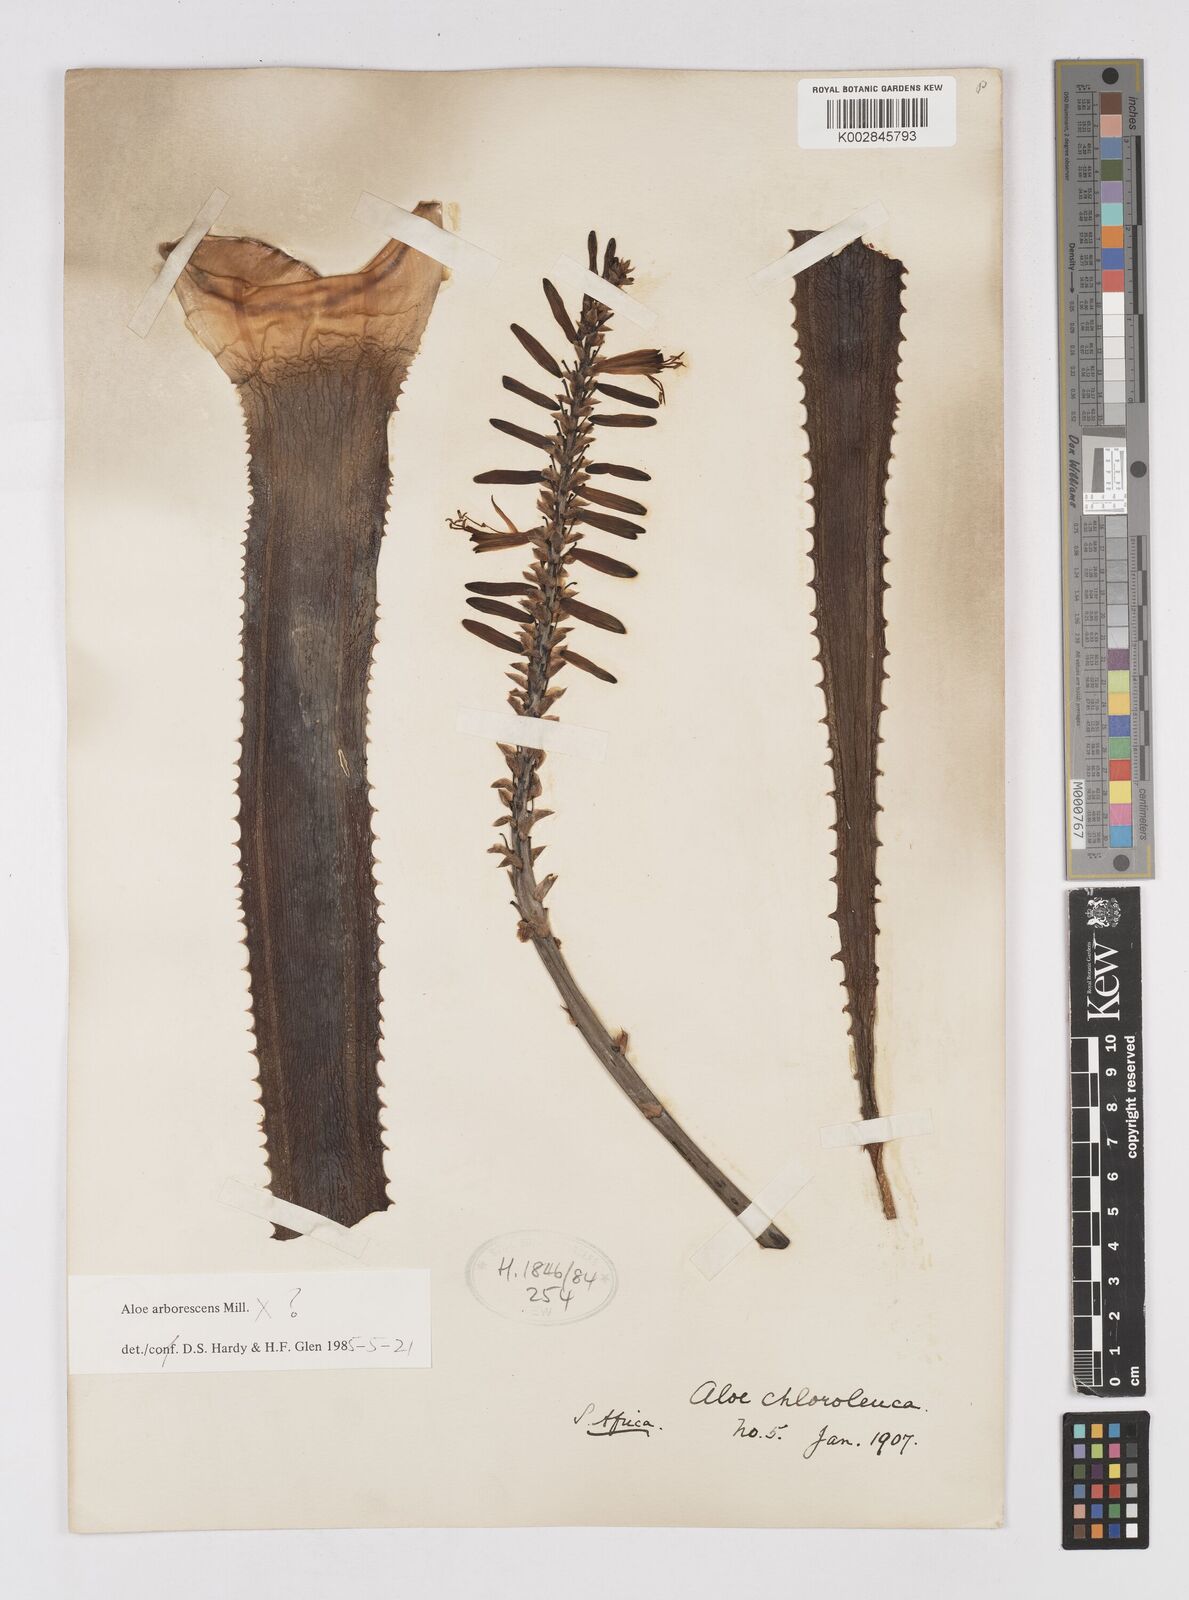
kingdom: Plantae
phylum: Tracheophyta
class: Liliopsida
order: Asparagales
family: Asphodelaceae
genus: Aloe
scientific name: Aloe arborescens
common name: Candelabra aloe
